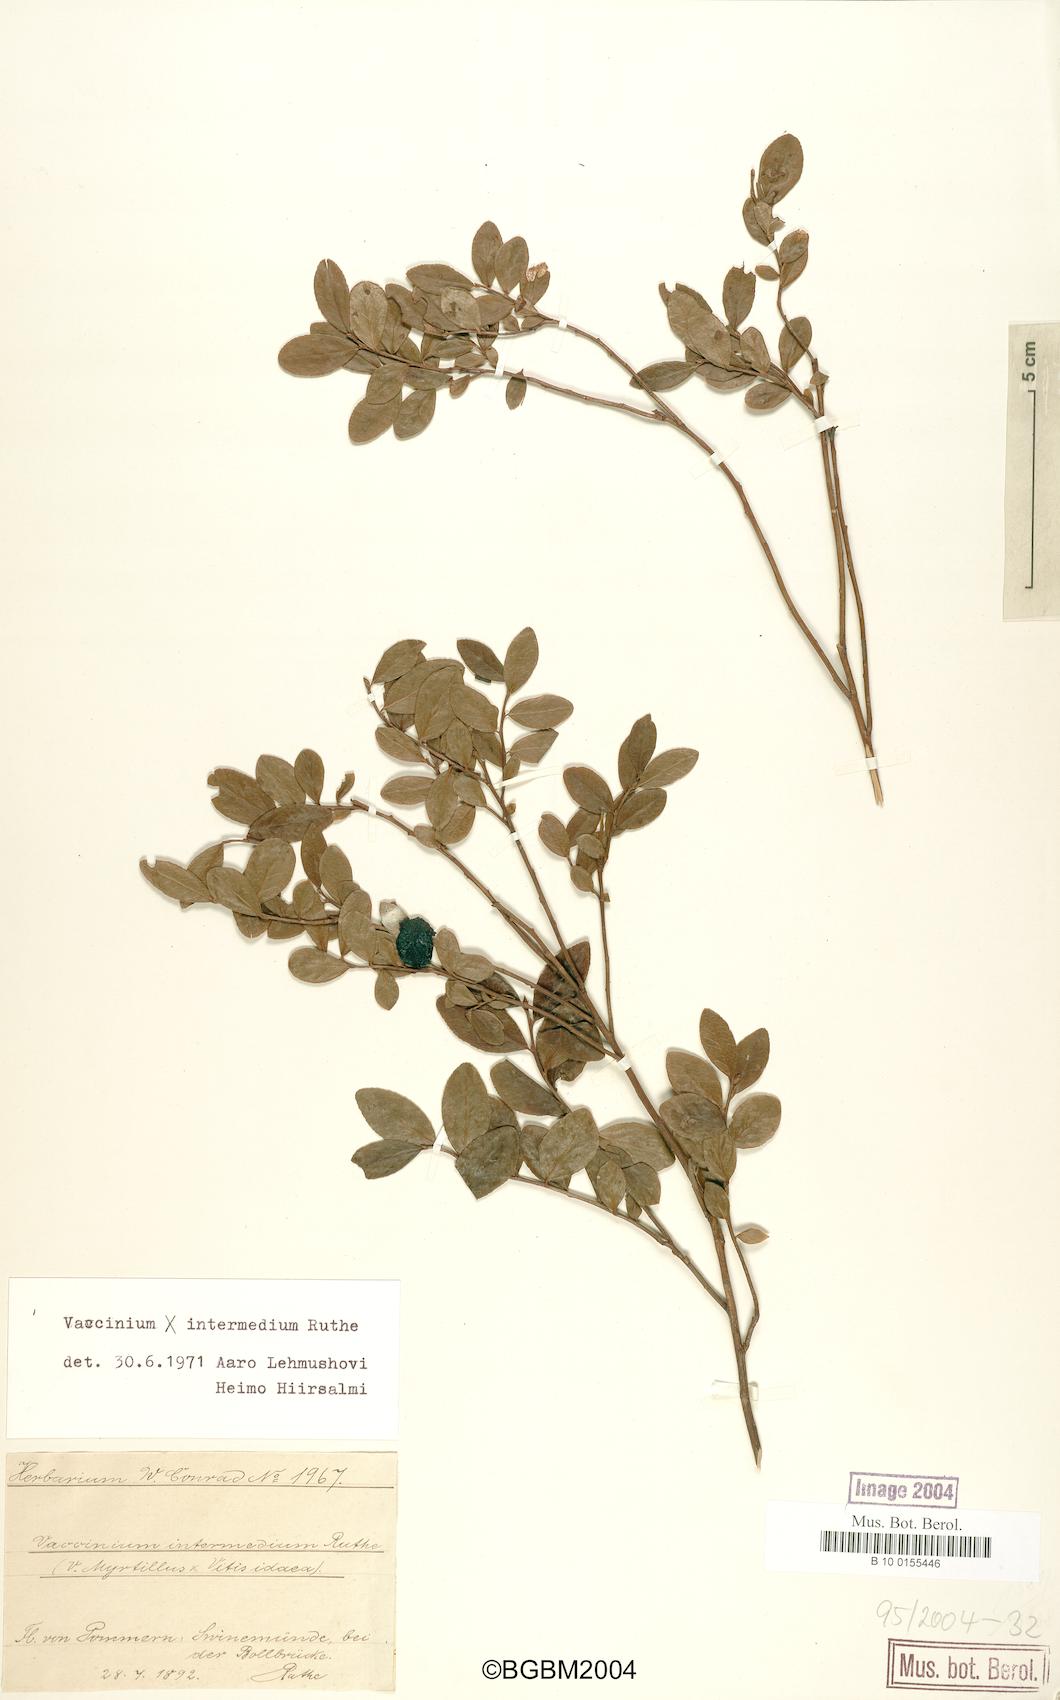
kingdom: Plantae
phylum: Tracheophyta
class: Magnoliopsida
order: Ericales
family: Ericaceae
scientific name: Ericaceae
